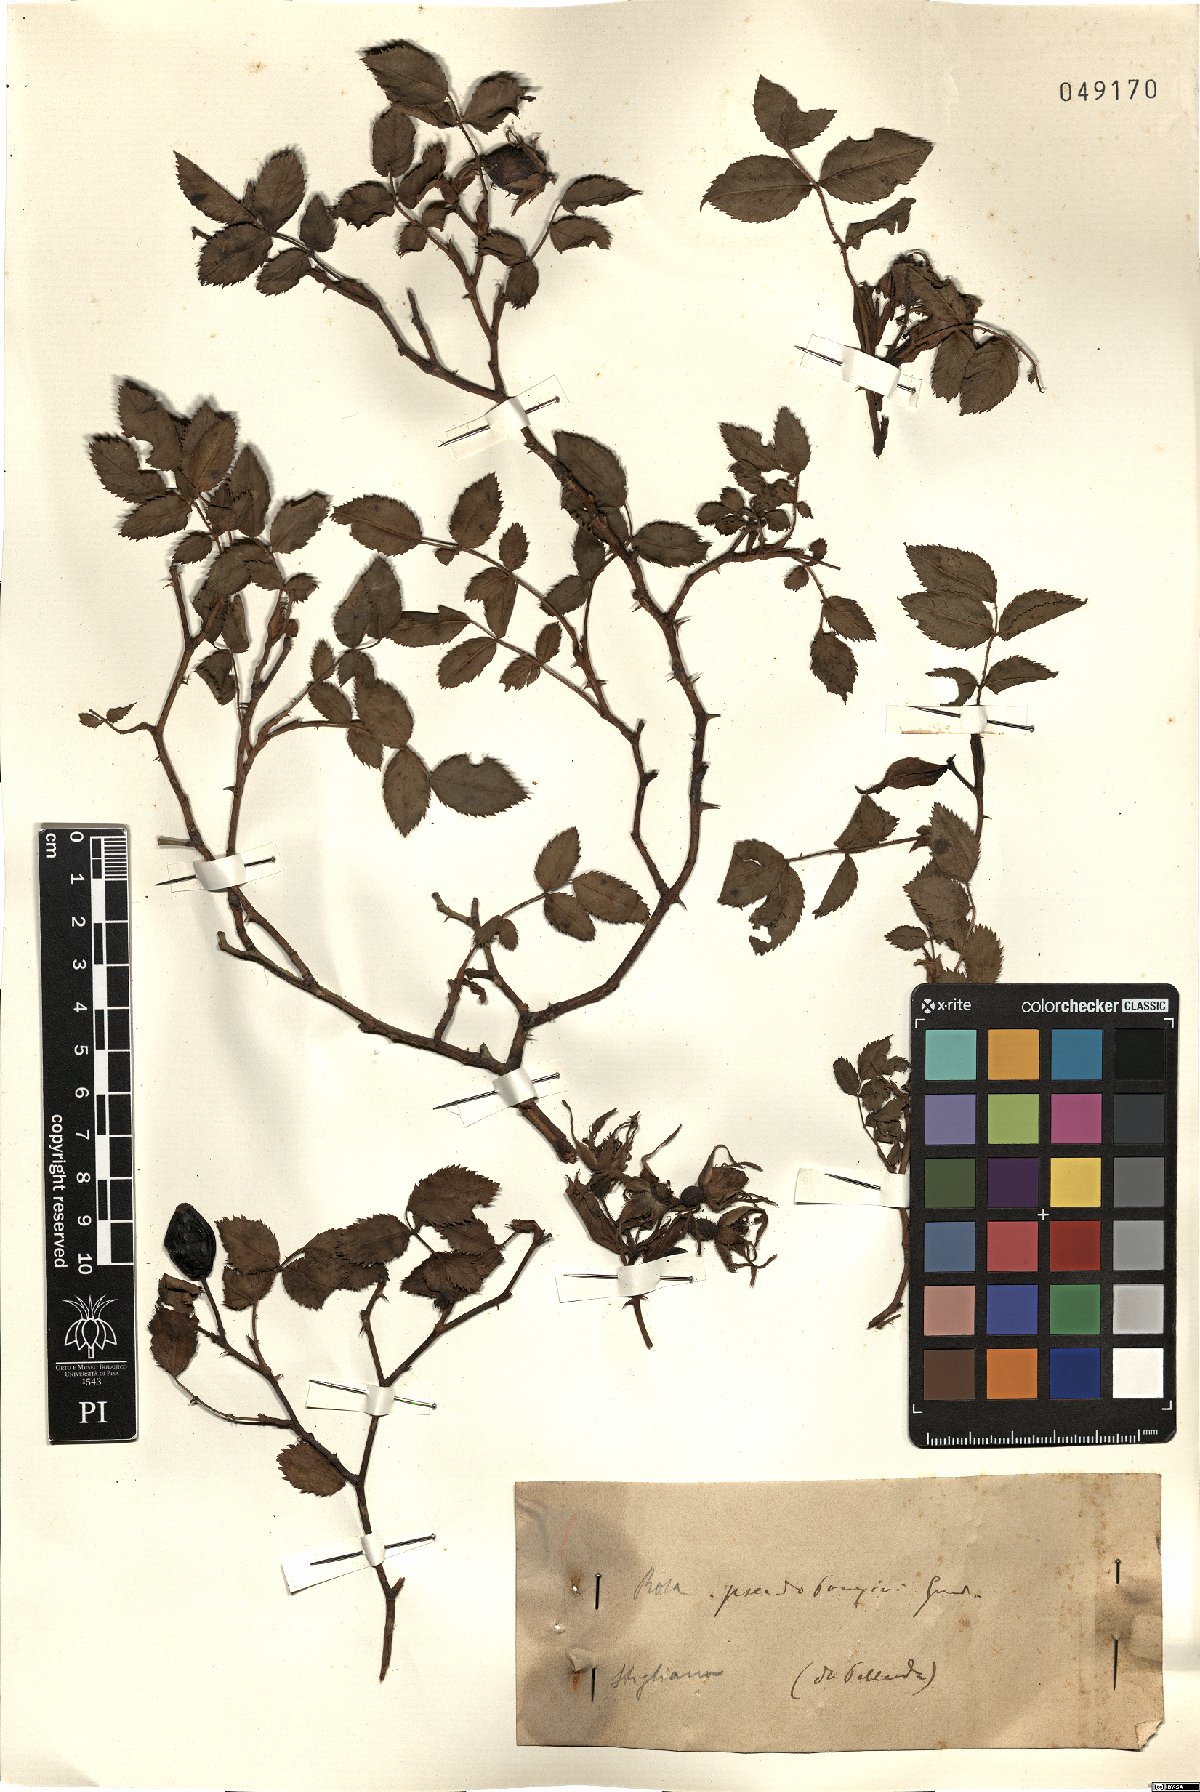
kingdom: Plantae
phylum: Tracheophyta
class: Magnoliopsida
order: Rosales
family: Rosaceae
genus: Rosa
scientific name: Rosa pouzinii
